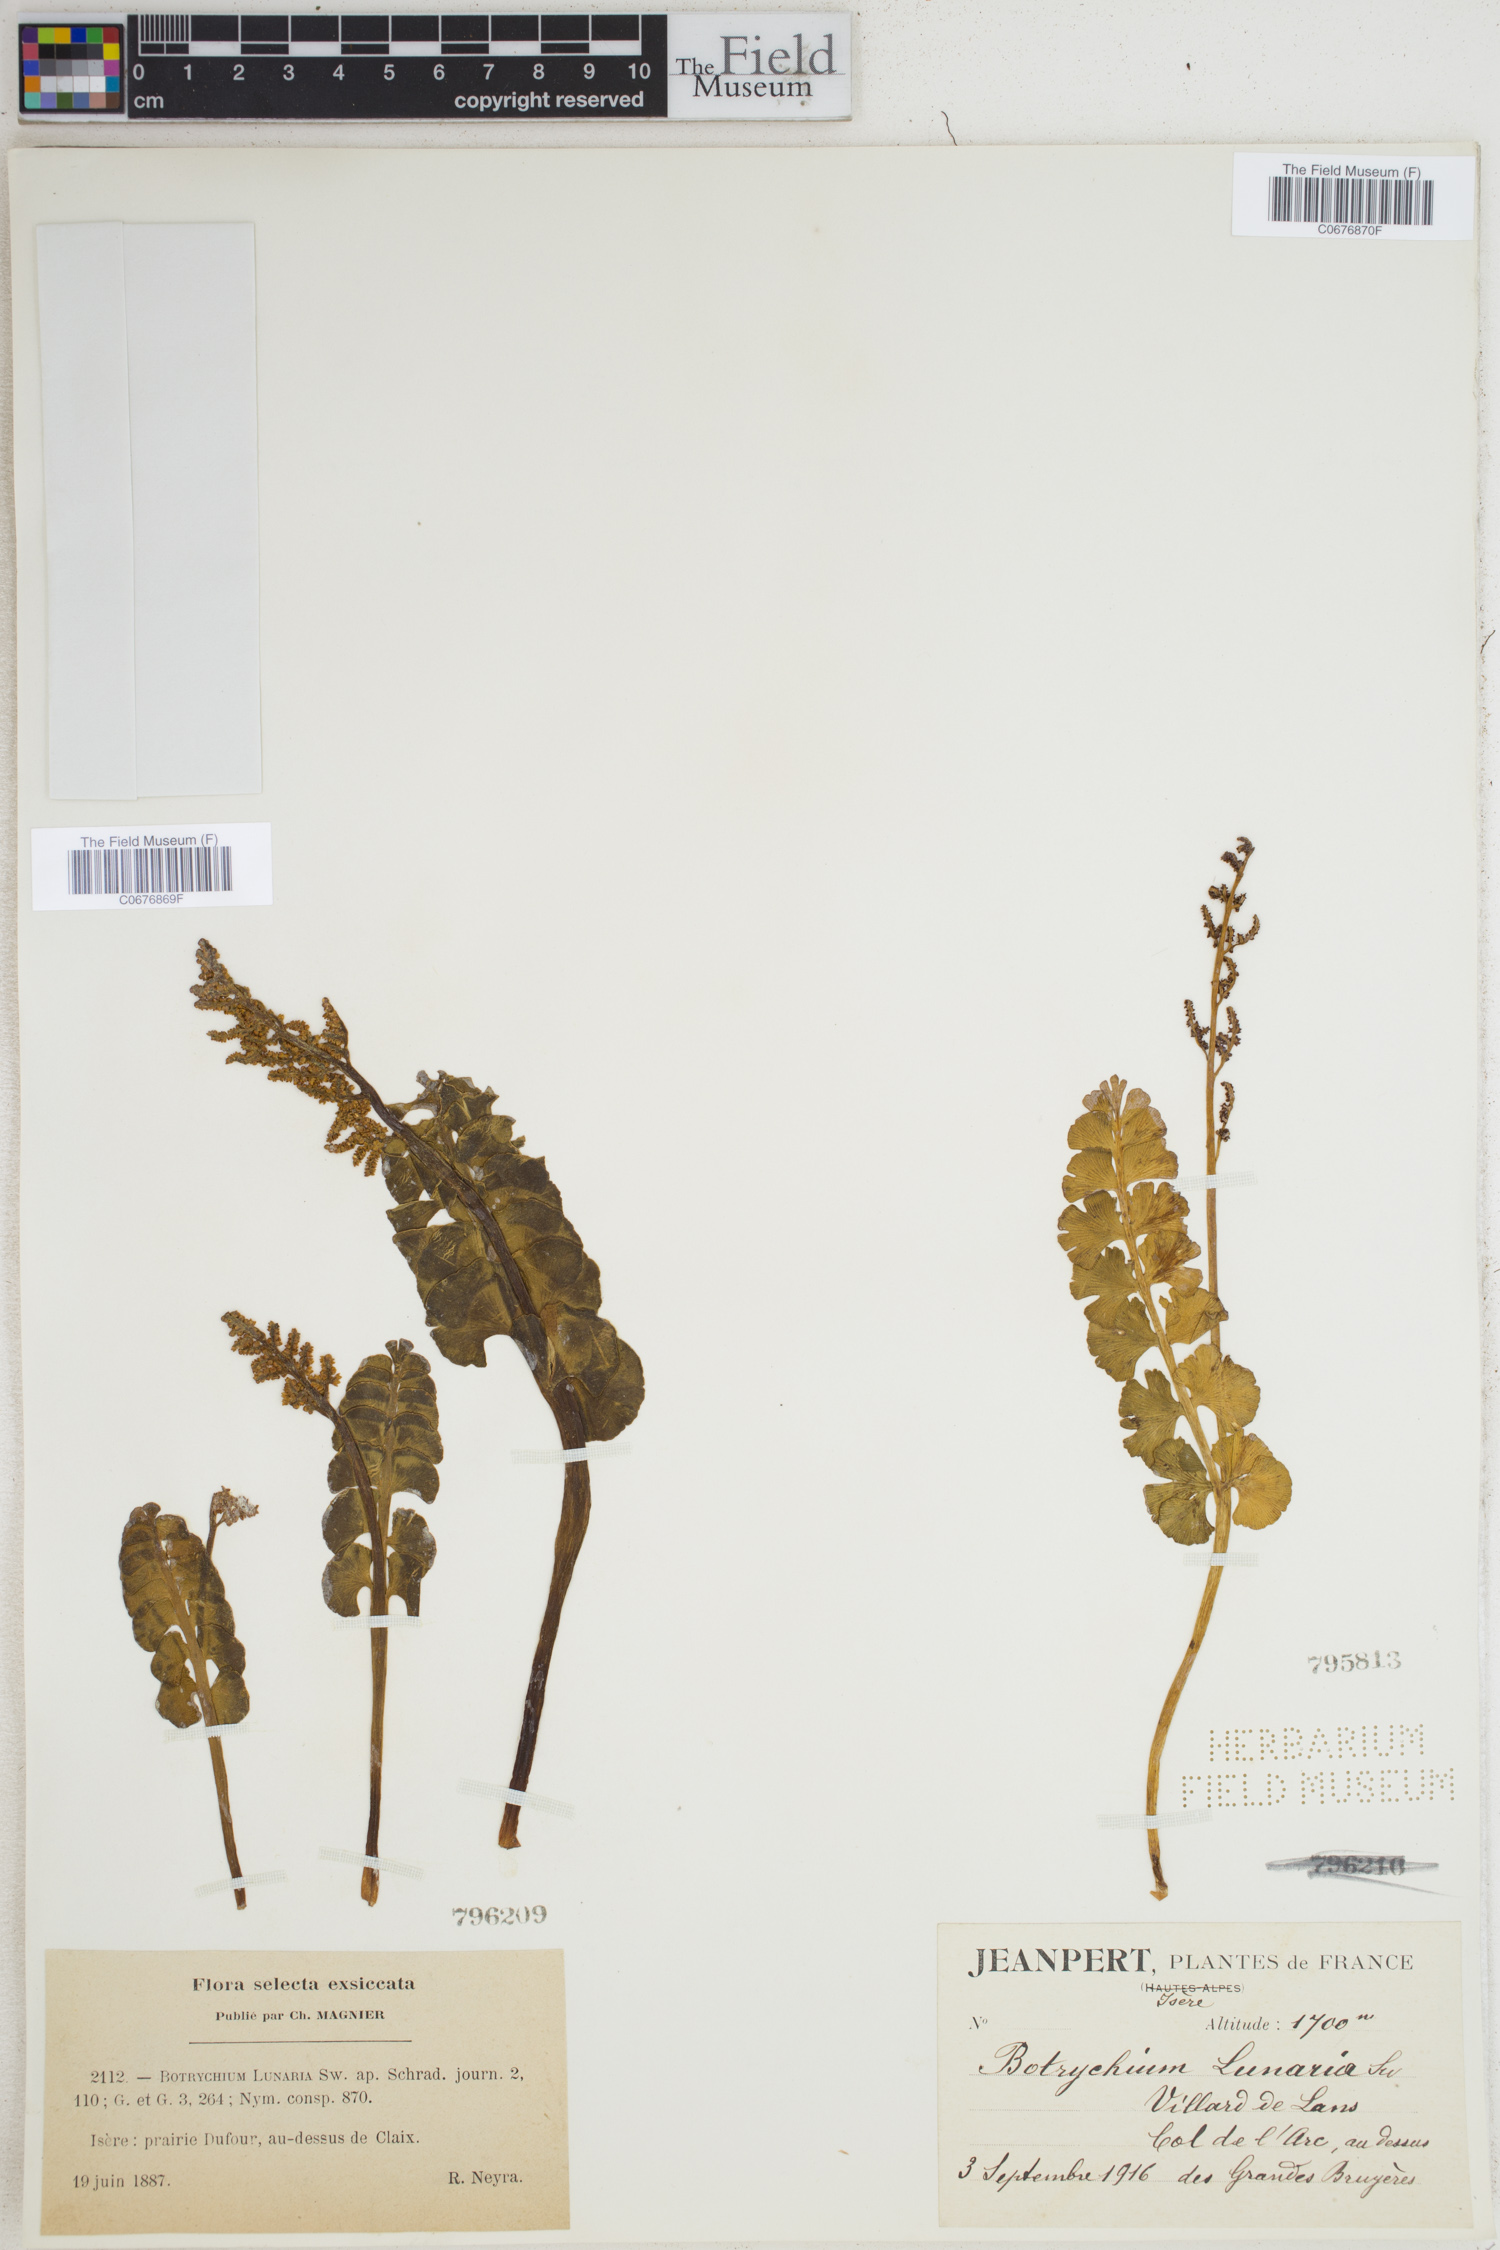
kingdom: Plantae
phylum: Tracheophyta
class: Polypodiopsida
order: Ophioglossales
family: Ophioglossaceae
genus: Botrychium
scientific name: Botrychium lunaria
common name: Moonwort
